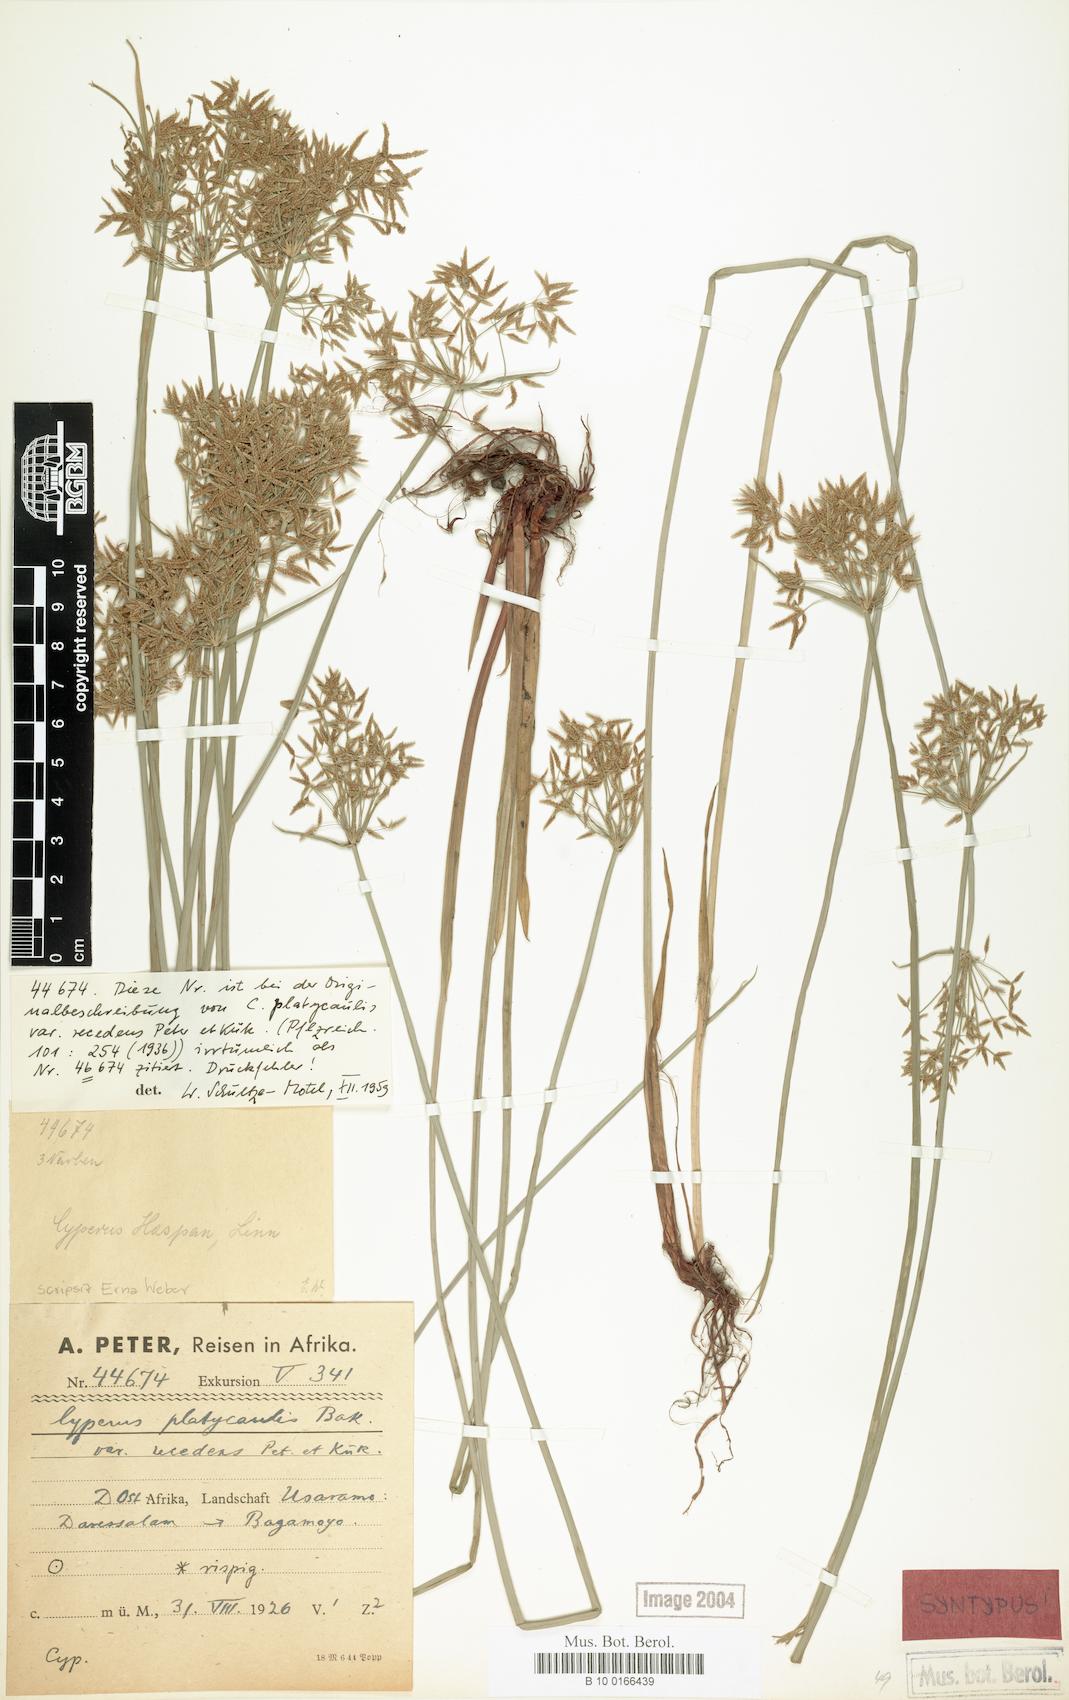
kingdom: Plantae
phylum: Tracheophyta
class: Liliopsida
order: Poales
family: Cyperaceae
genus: Cyperus
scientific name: Cyperus denudatus
